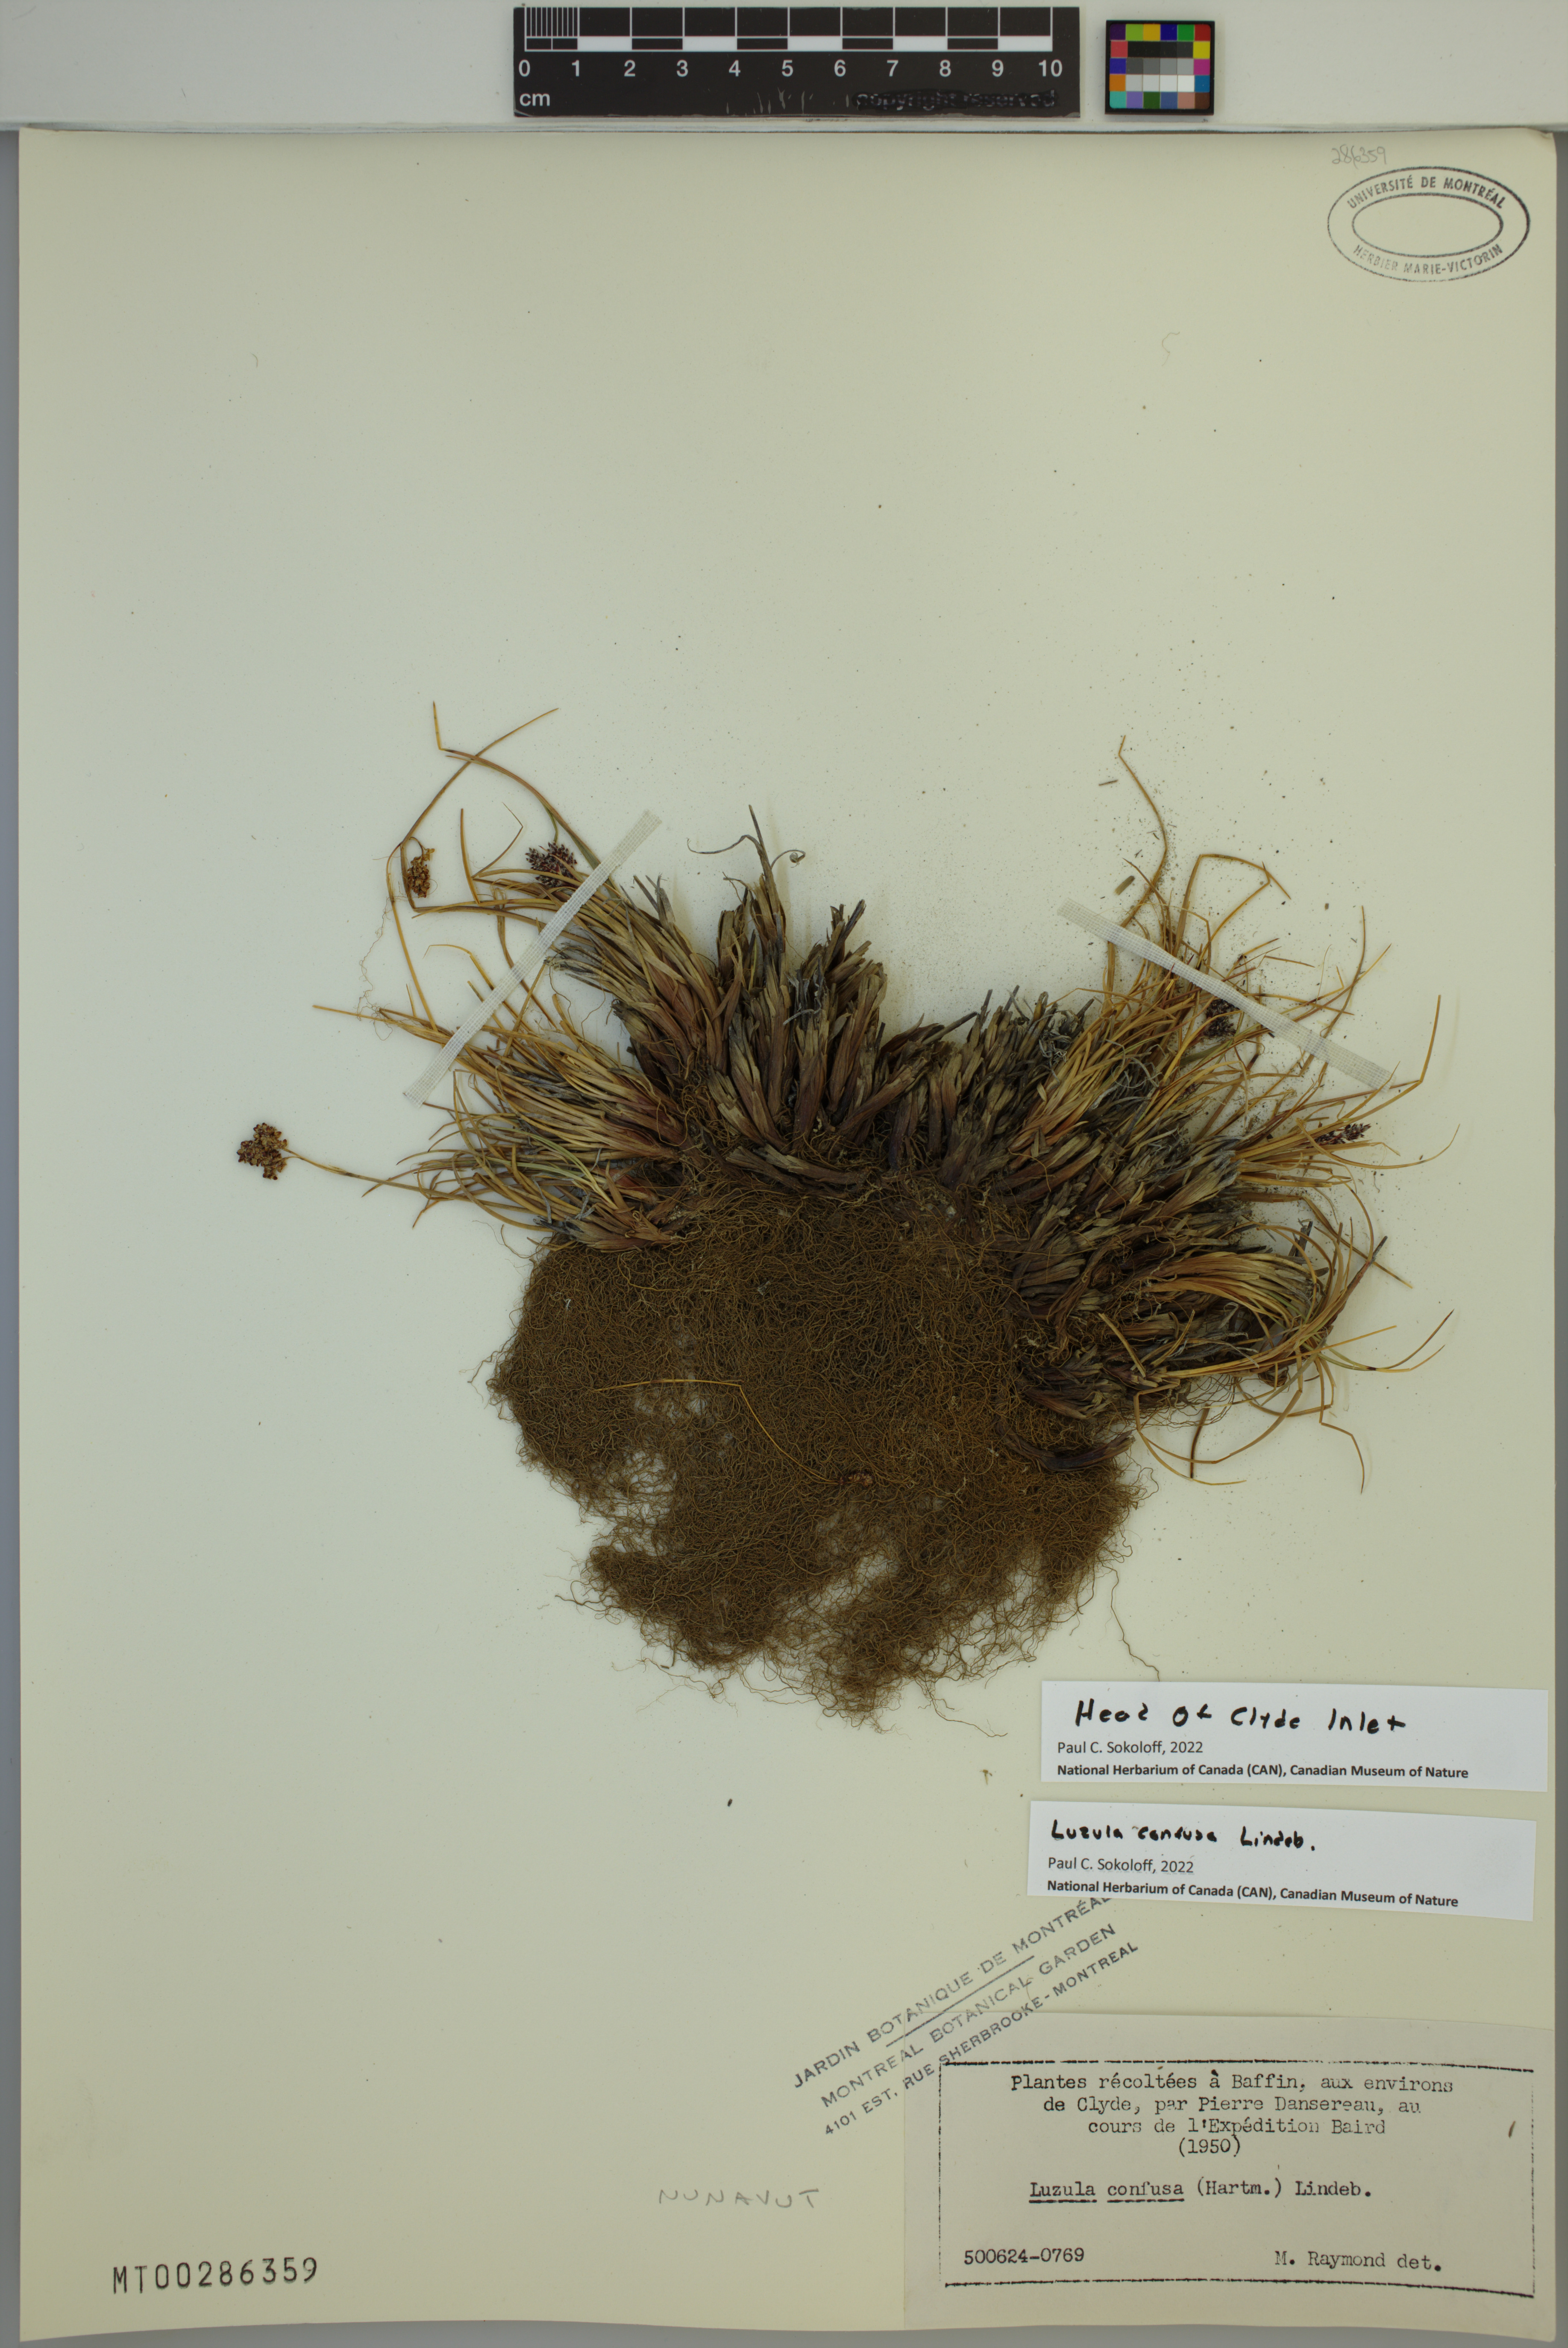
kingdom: Plantae
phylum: Tracheophyta
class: Liliopsida
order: Poales
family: Juncaceae
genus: Luzula
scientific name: Luzula confusa
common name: Northern wood rush
